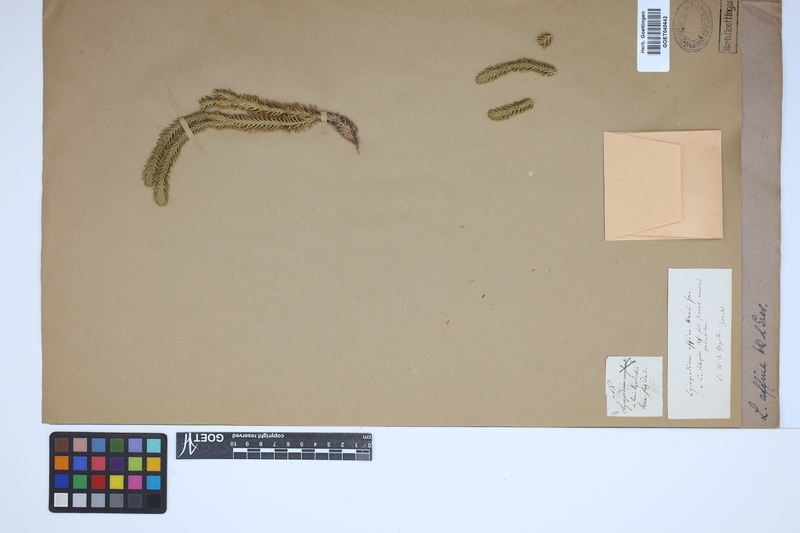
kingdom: Plantae
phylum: Tracheophyta
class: Lycopodiopsida
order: Lycopodiales
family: Lycopodiaceae
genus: Phlegmariurus
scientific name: Phlegmariurus affinis
